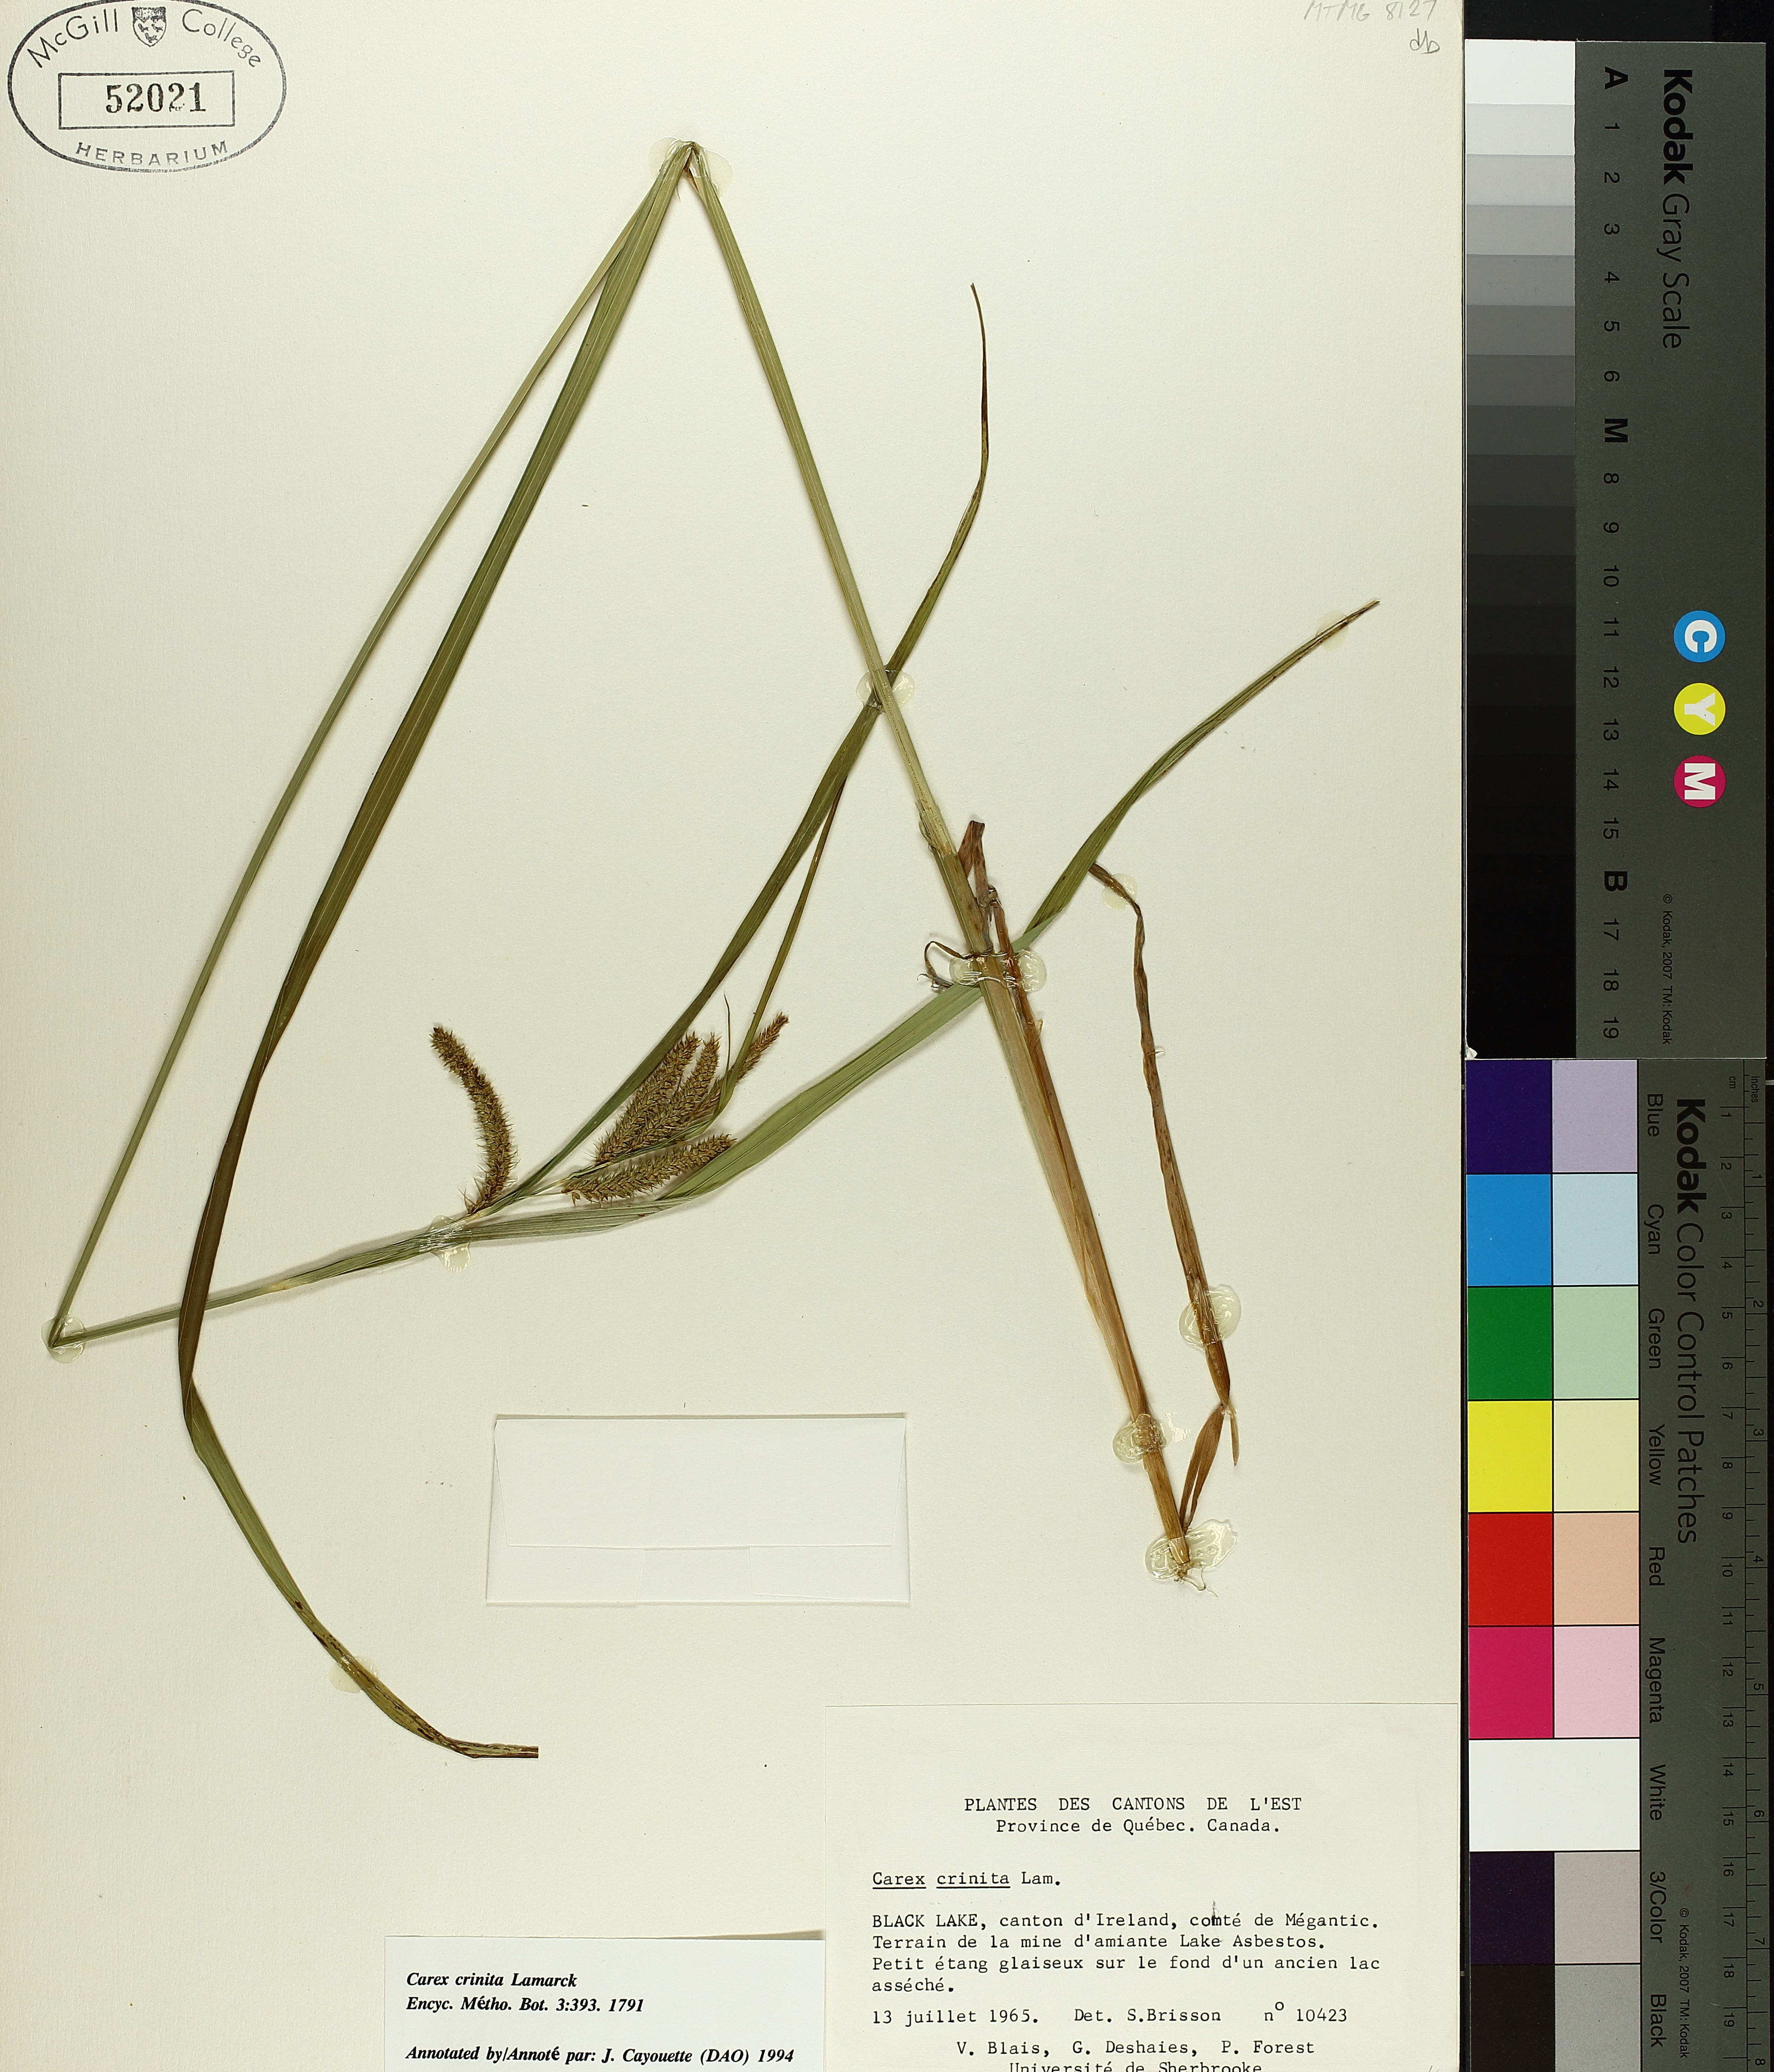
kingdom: Plantae
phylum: Tracheophyta
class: Liliopsida
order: Poales
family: Cyperaceae
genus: Carex
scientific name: Carex crinita
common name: Fringed sedge
